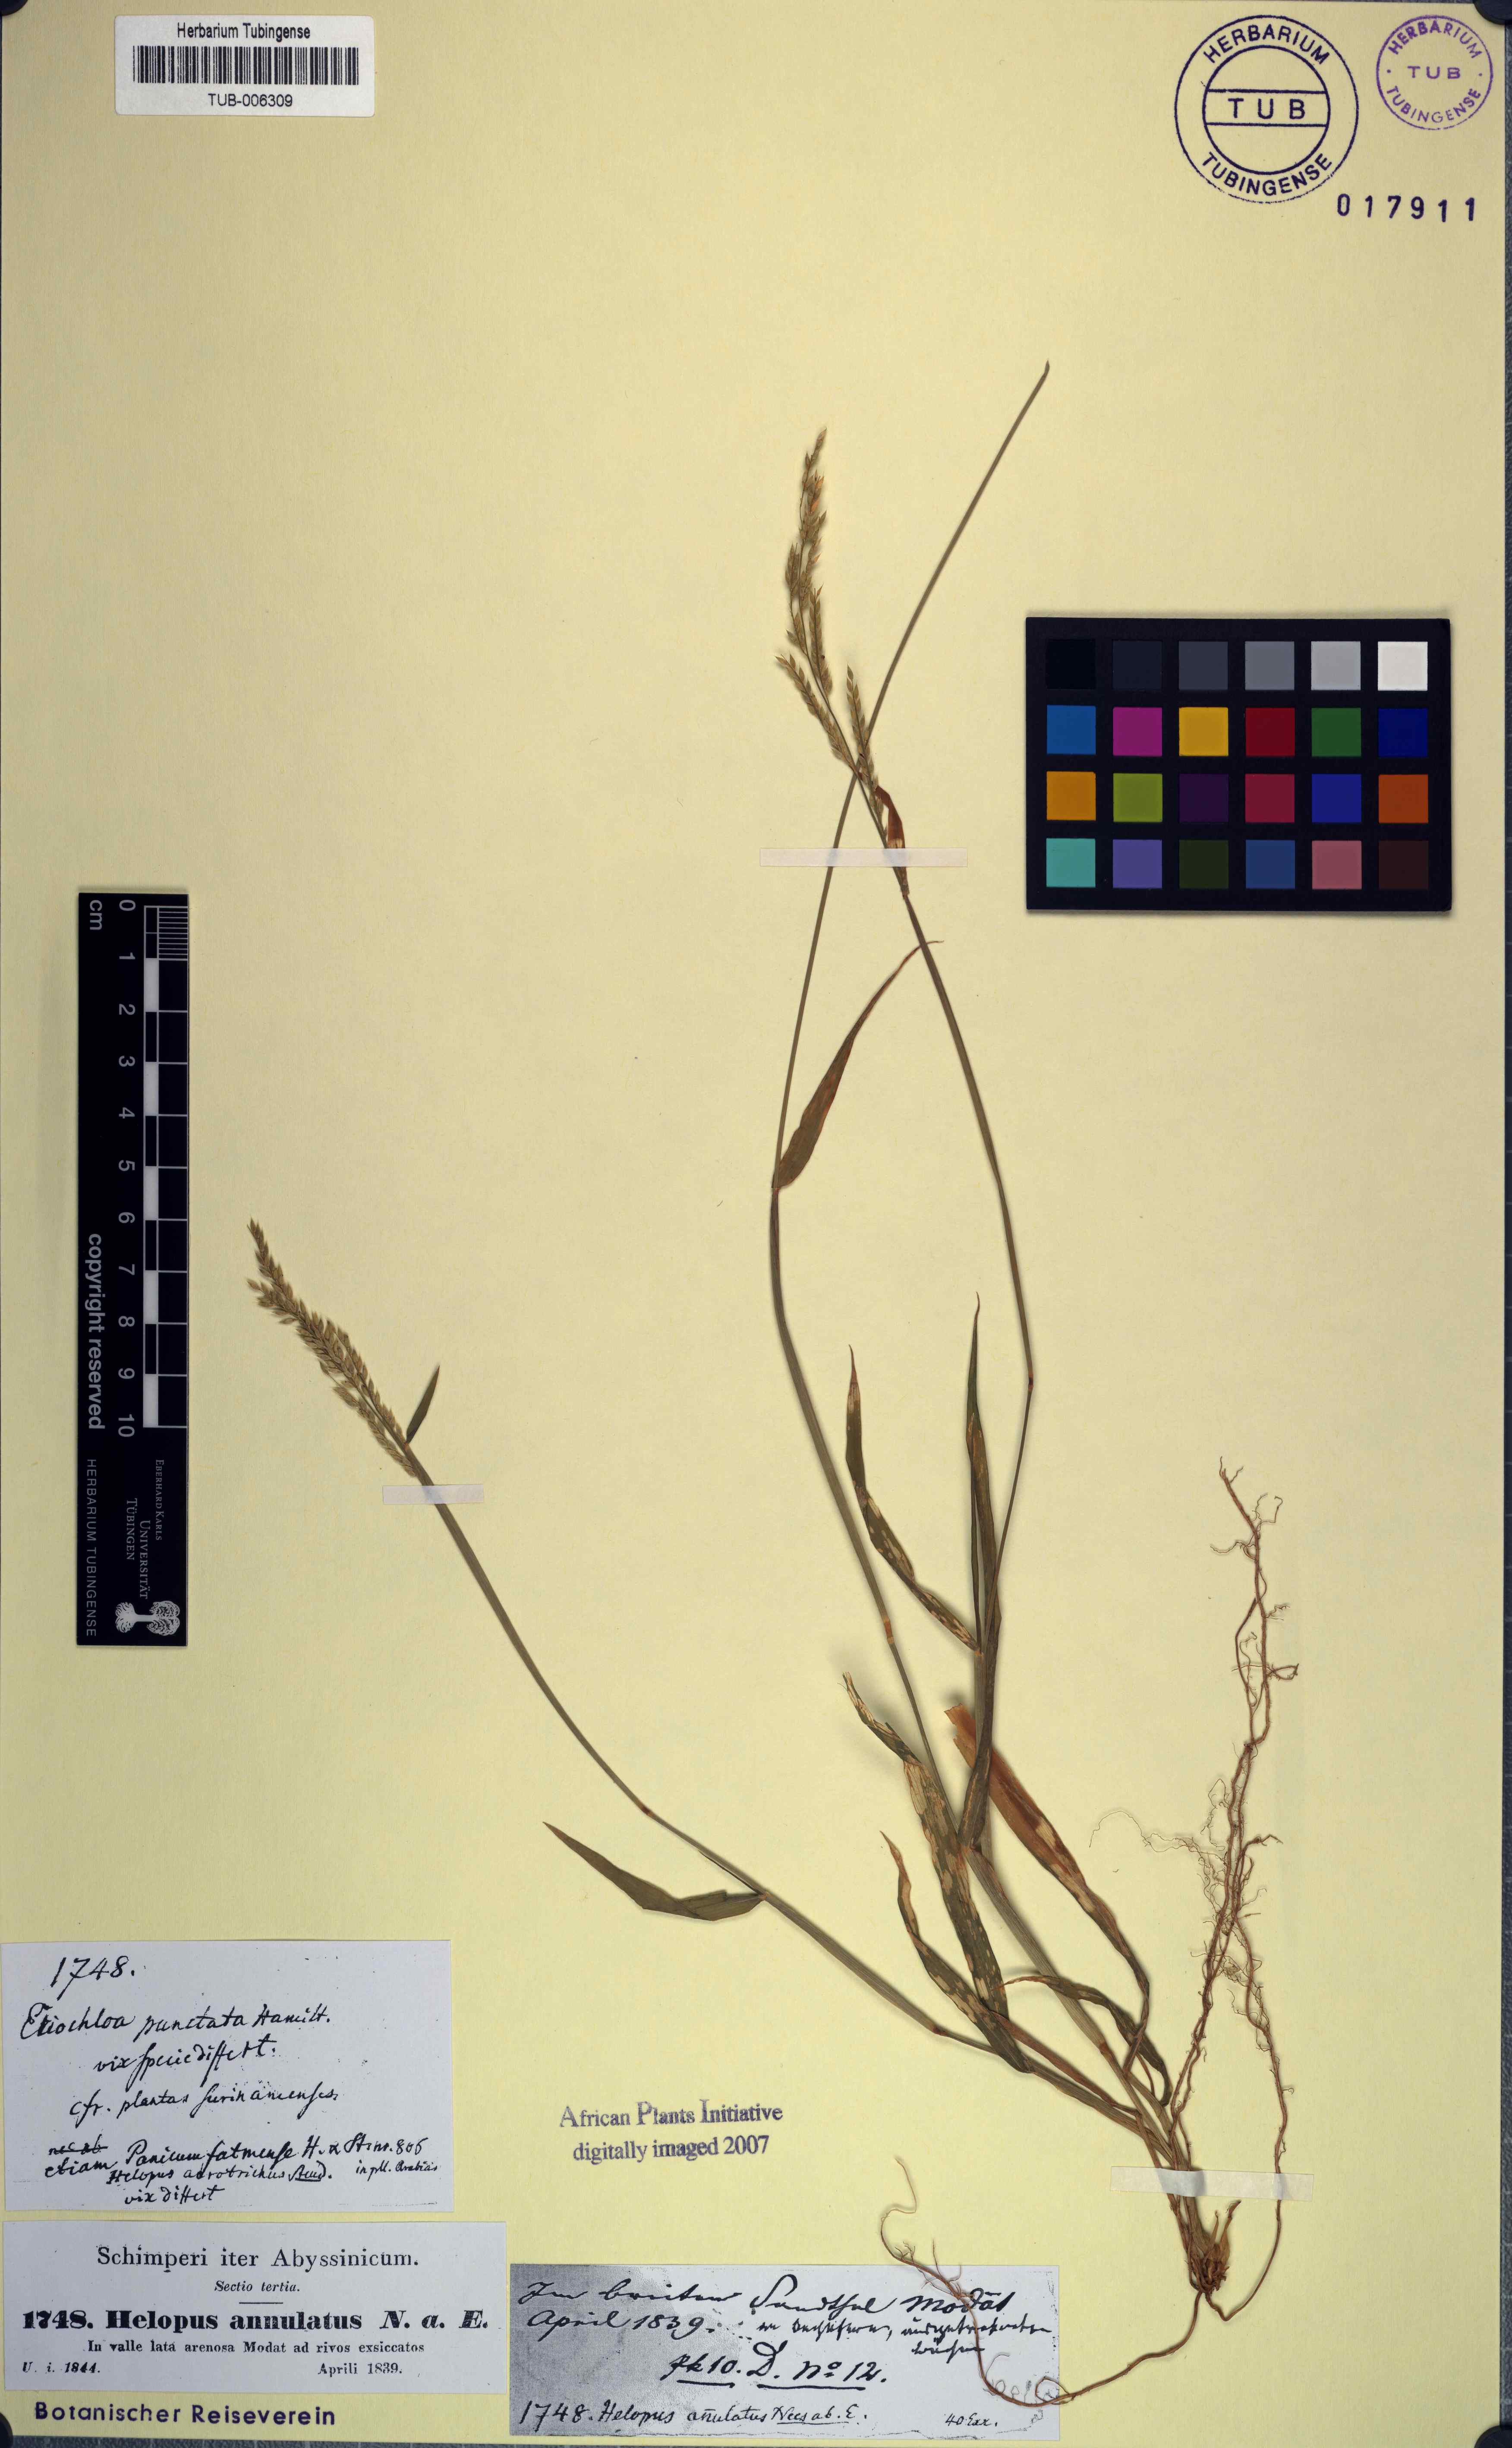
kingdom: Plantae
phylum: Tracheophyta
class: Liliopsida
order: Poales
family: Poaceae
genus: Eriochloa
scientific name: Eriochloa procera
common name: Spring grass
